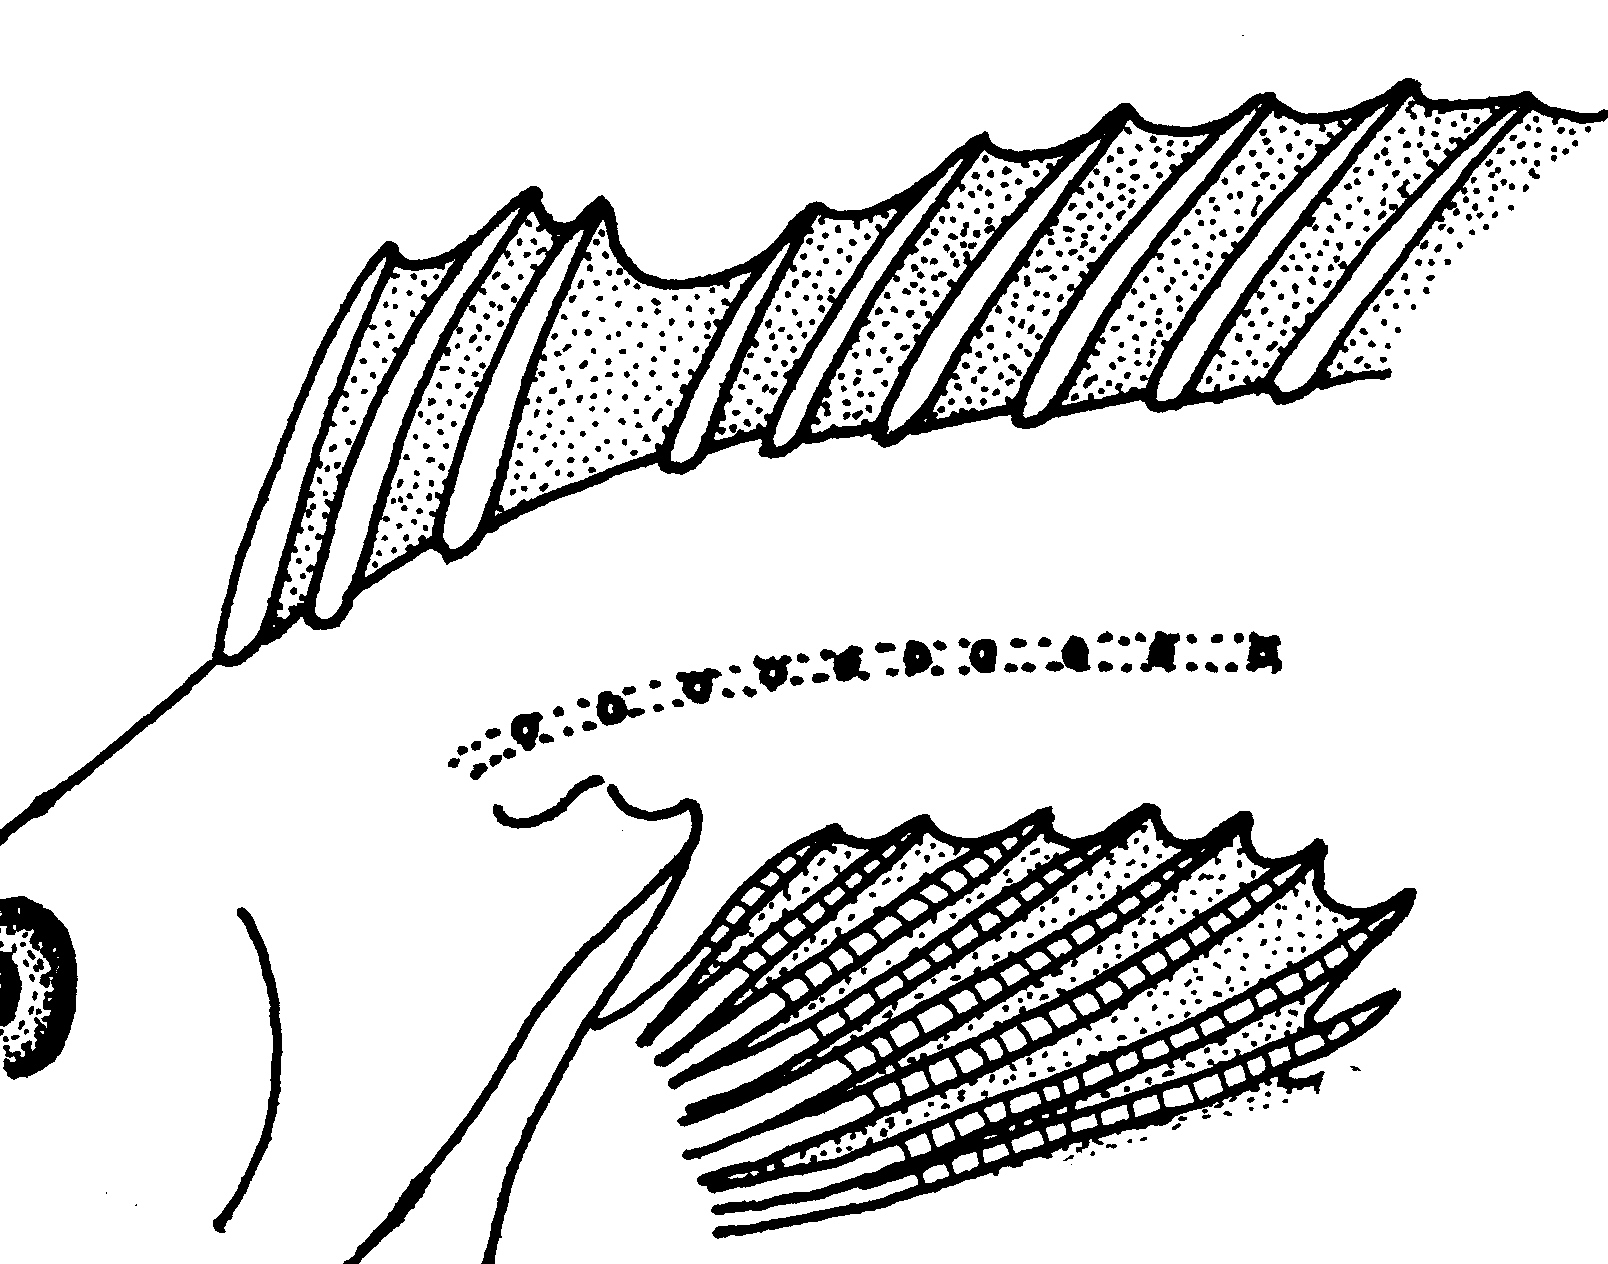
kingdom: Animalia
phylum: Chordata
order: Perciformes
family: Clinidae
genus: Pavoclinus
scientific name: Pavoclinus
